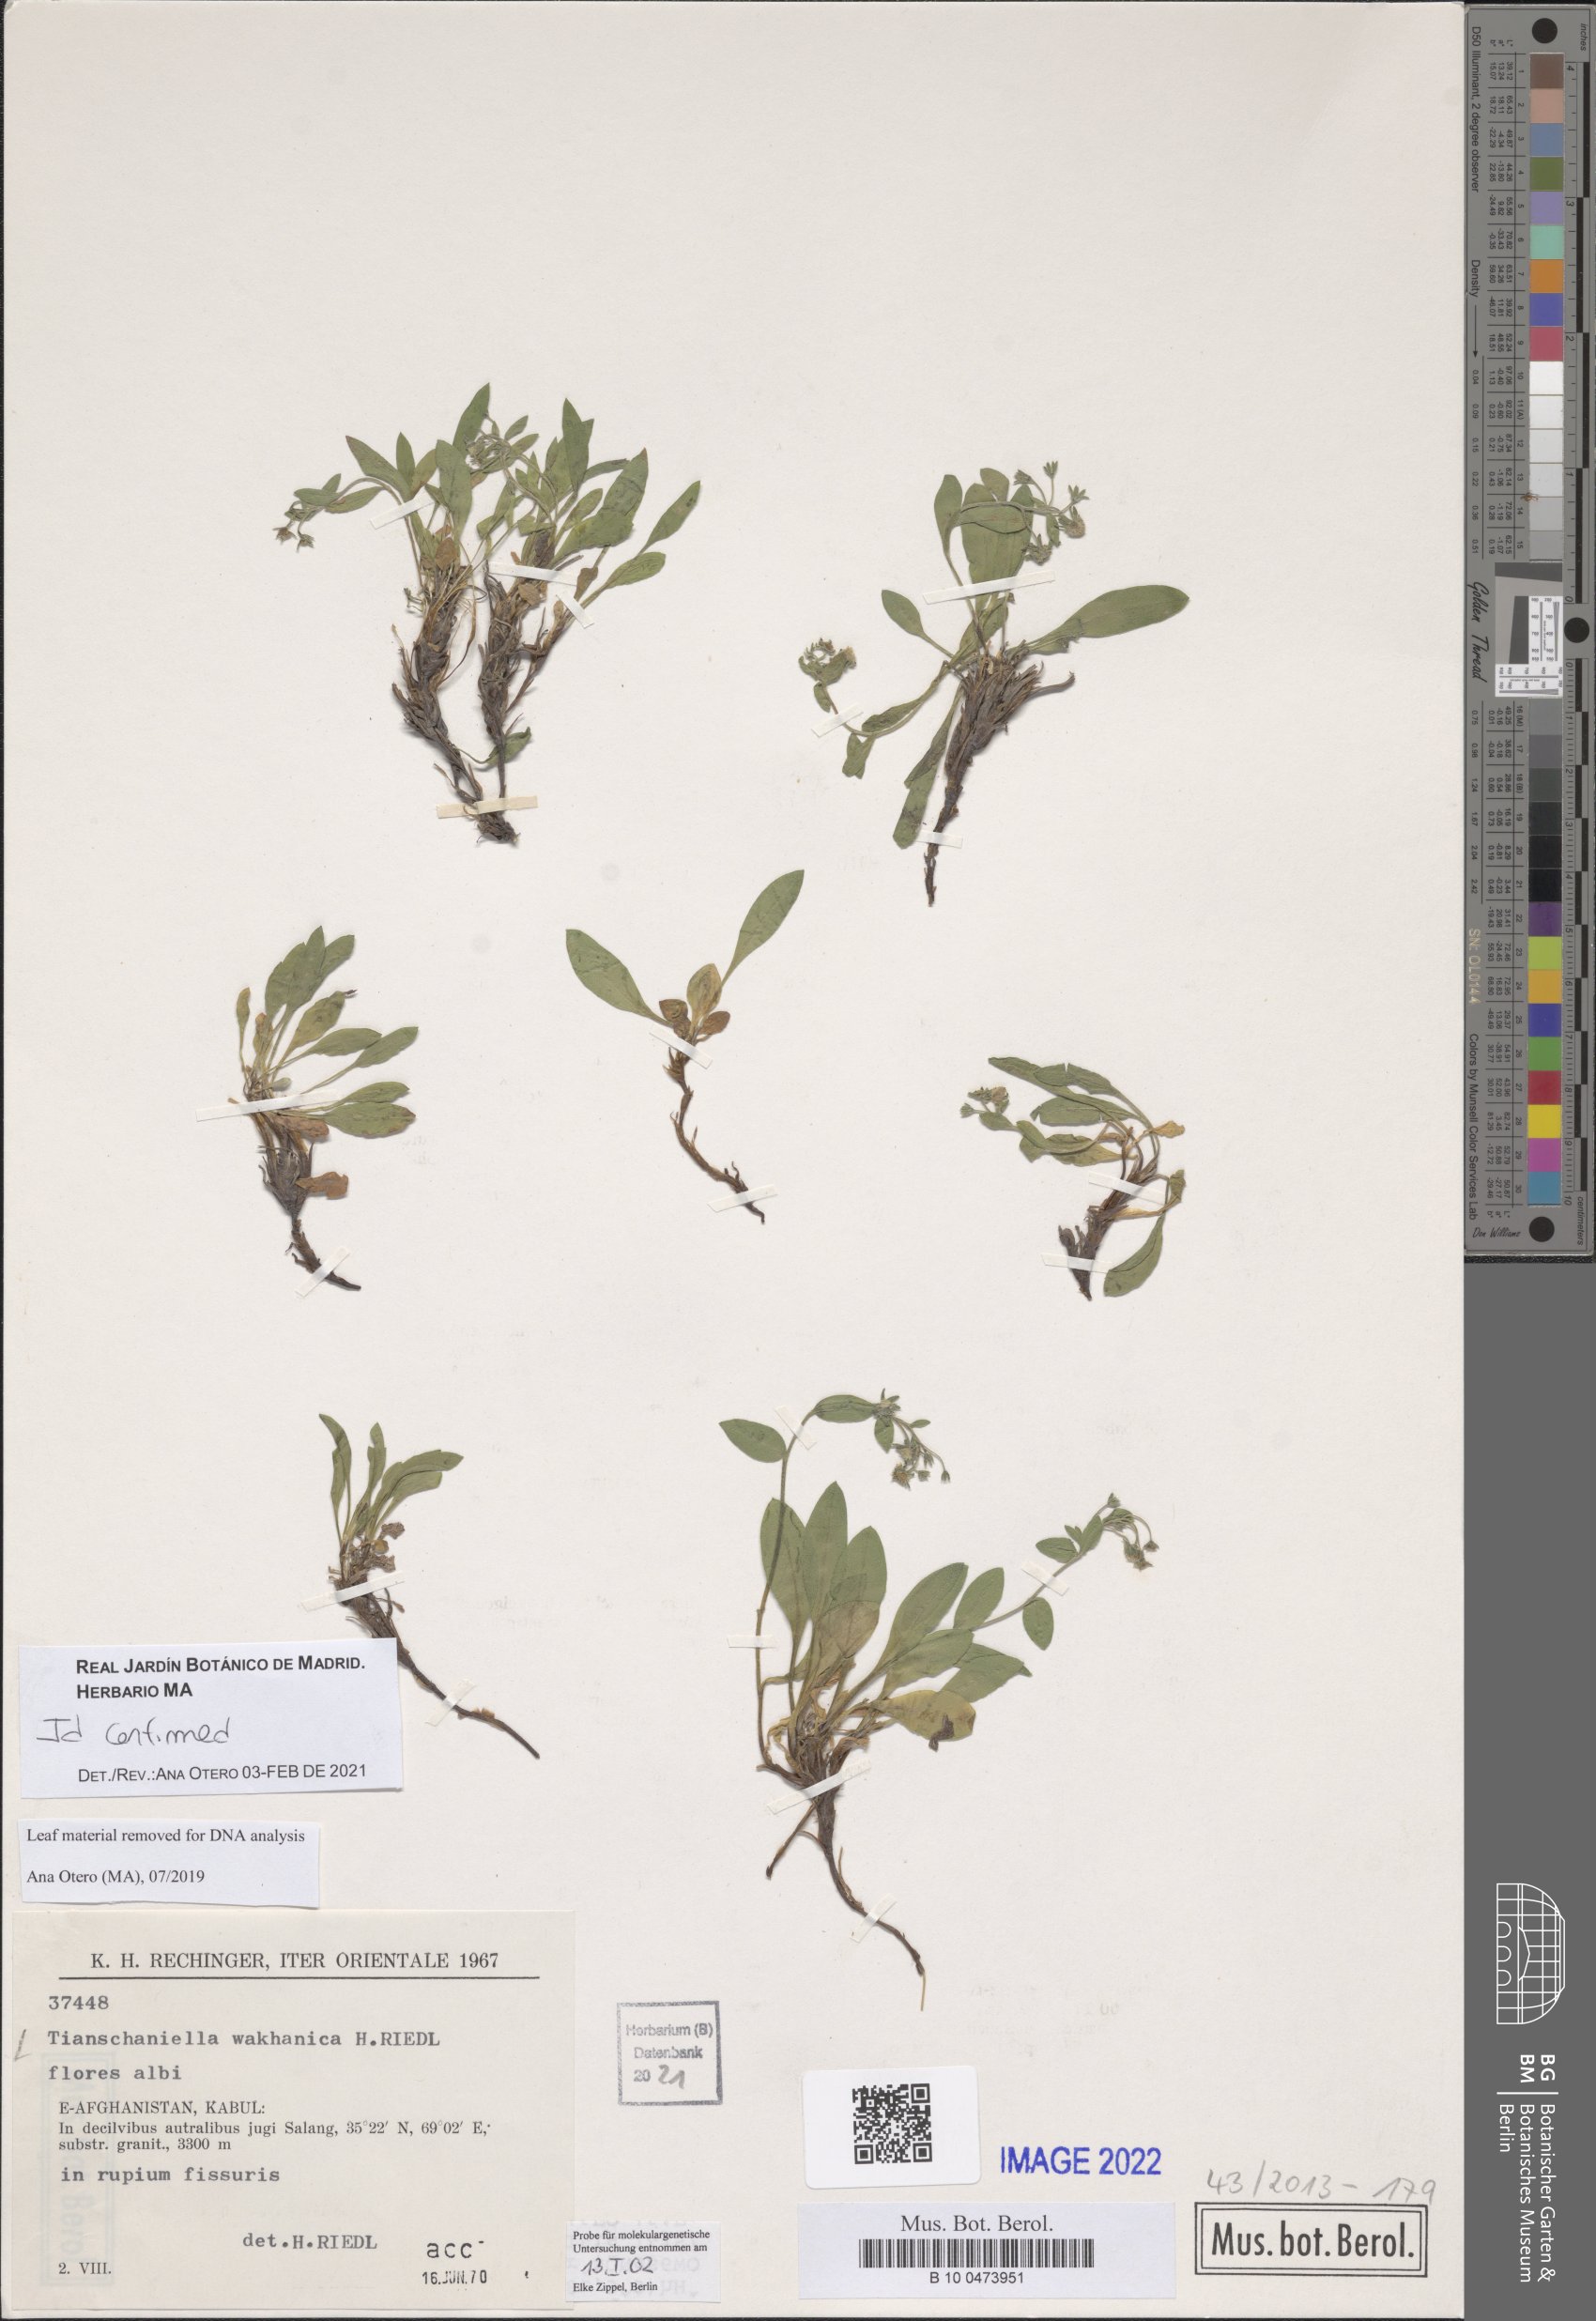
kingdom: Plantae
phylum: Tracheophyta
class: Magnoliopsida
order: Boraginales
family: Boraginaceae
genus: Eritrichium
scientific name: Eritrichium pamiricum
